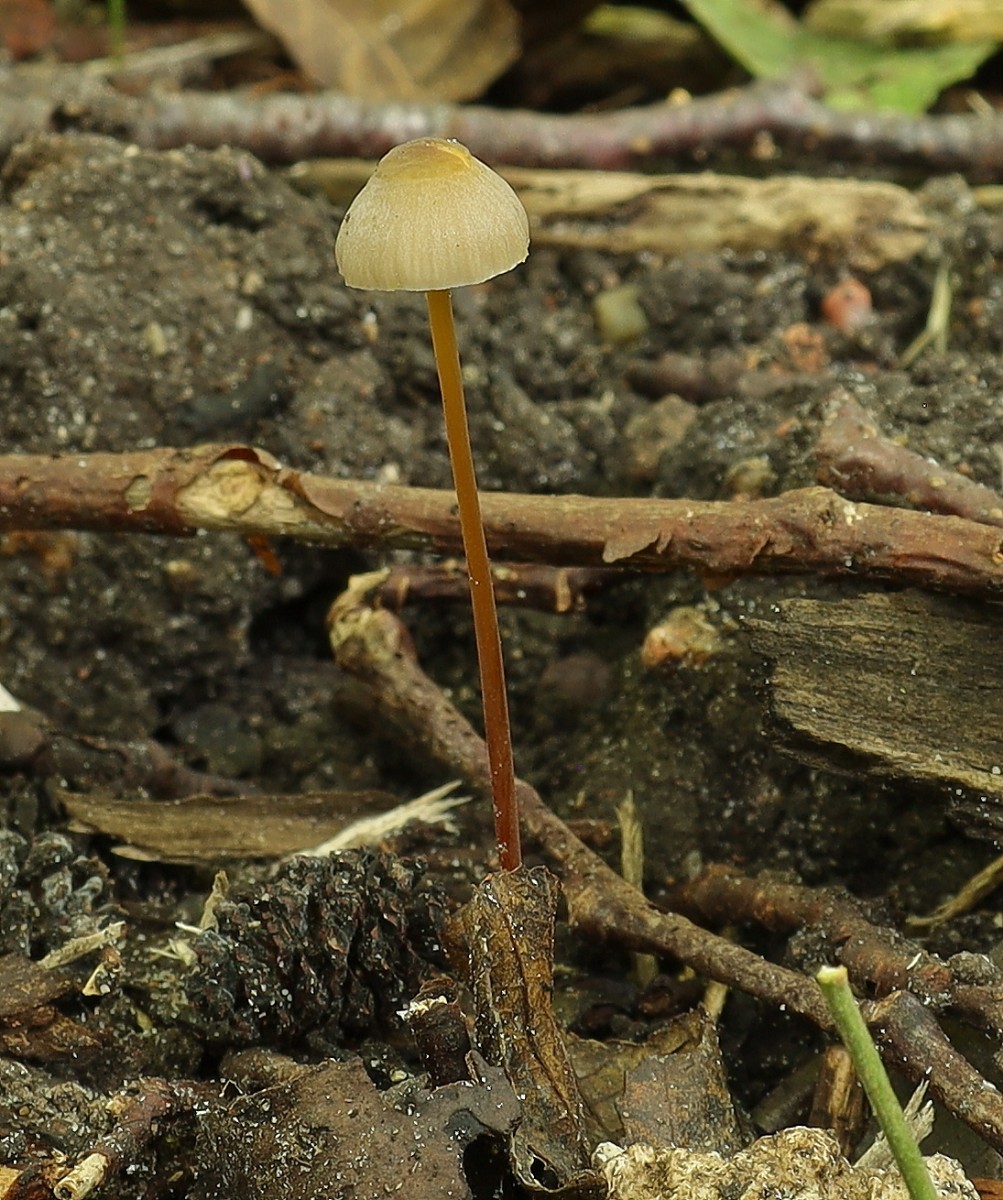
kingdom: Fungi
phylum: Basidiomycota
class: Agaricomycetes
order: Agaricales
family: Mycenaceae
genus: Mycena
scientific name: Mycena crocata
